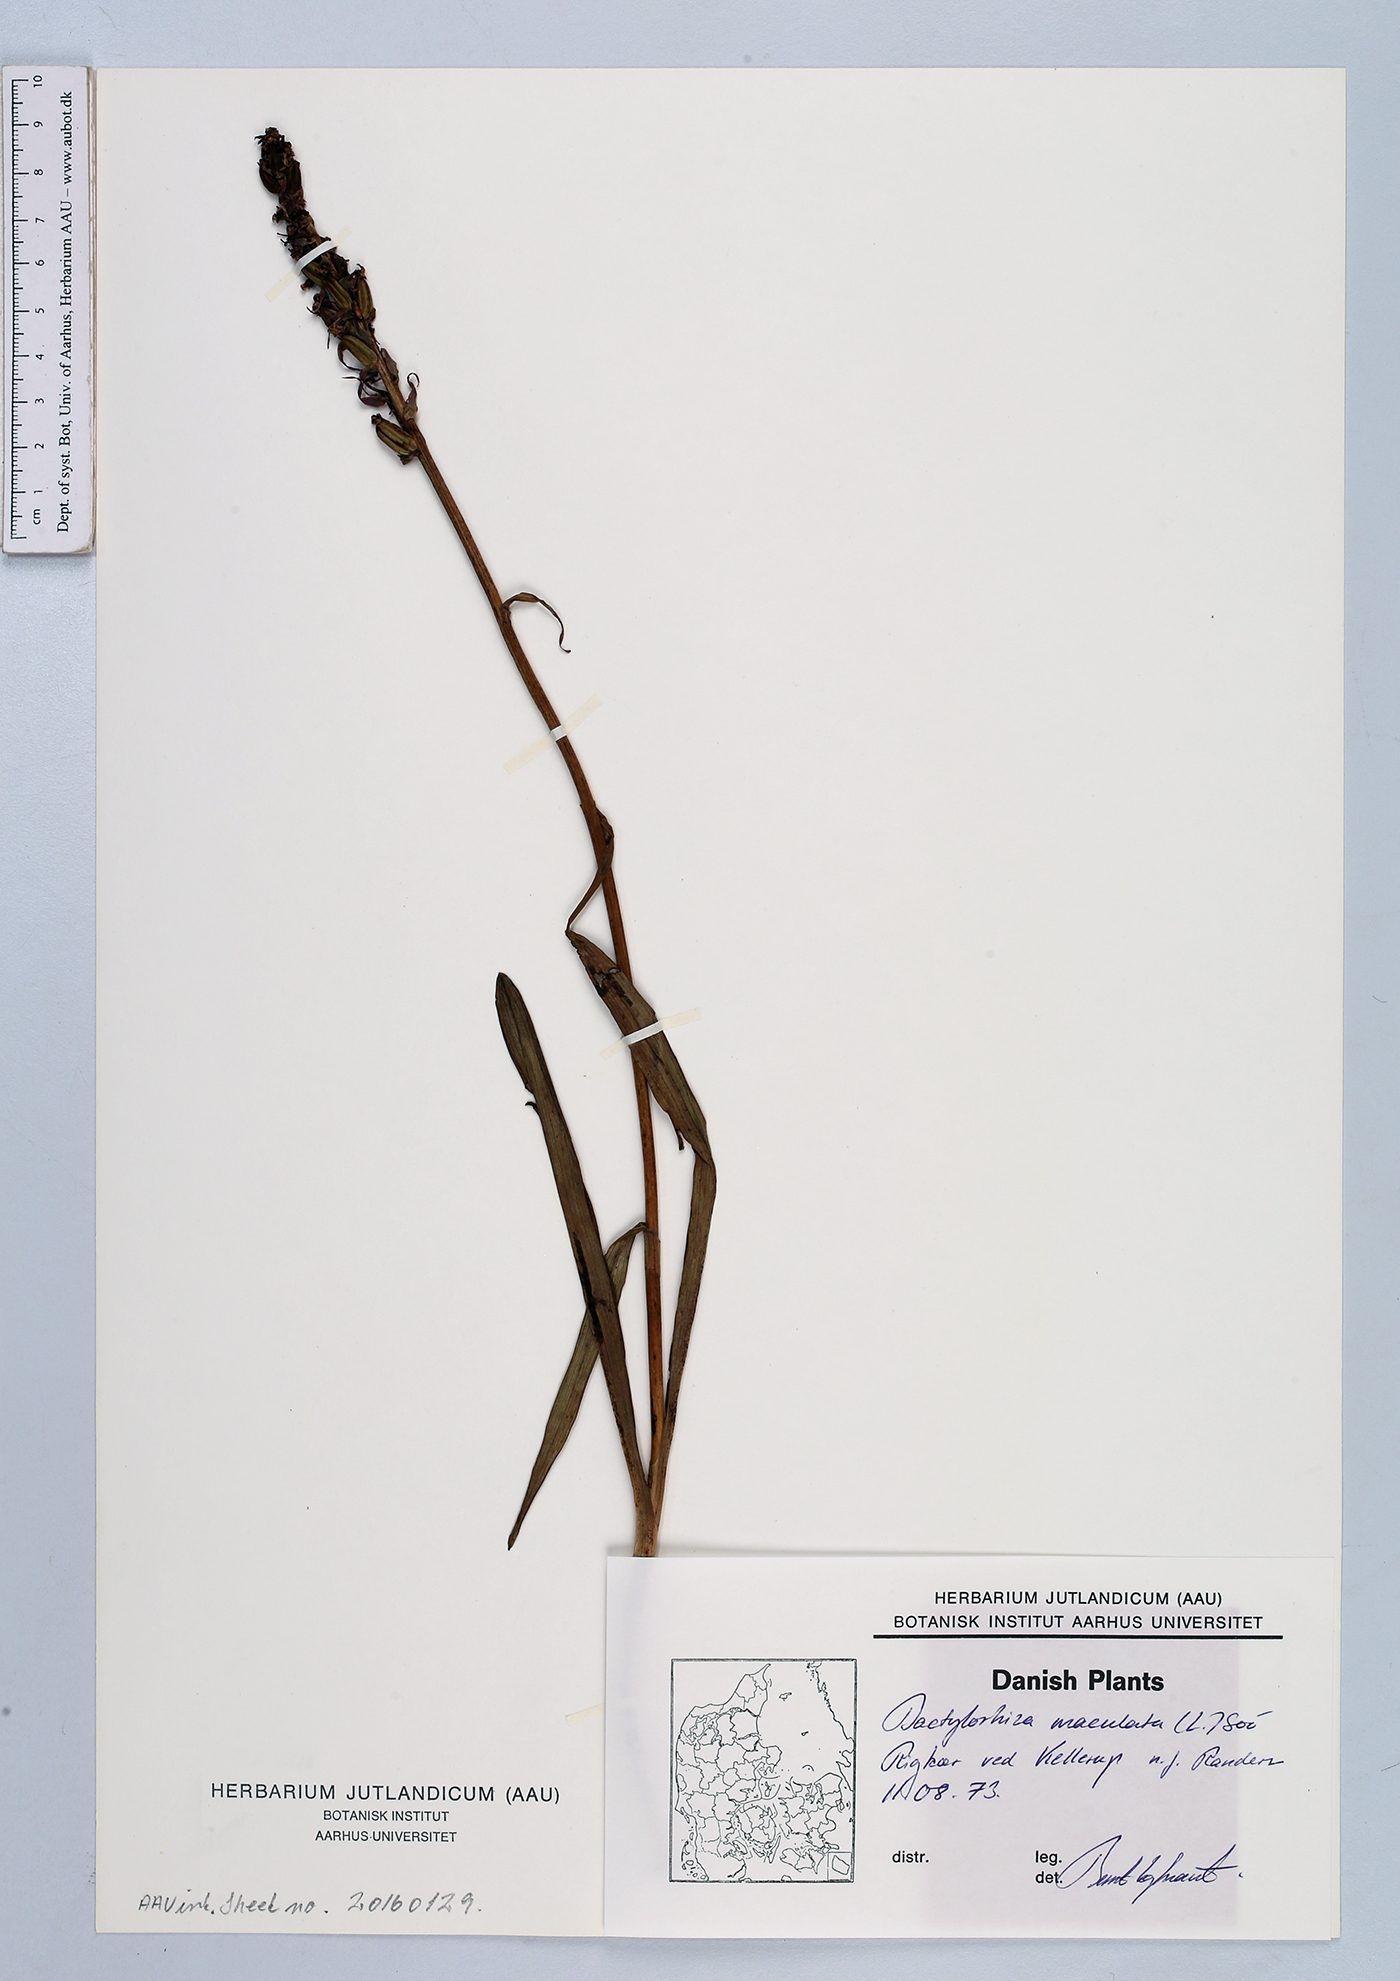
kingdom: Plantae
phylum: Tracheophyta
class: Liliopsida
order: Asparagales
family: Orchidaceae
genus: Dactylorhiza
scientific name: Dactylorhiza maculata
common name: Heath spotted-orchid
